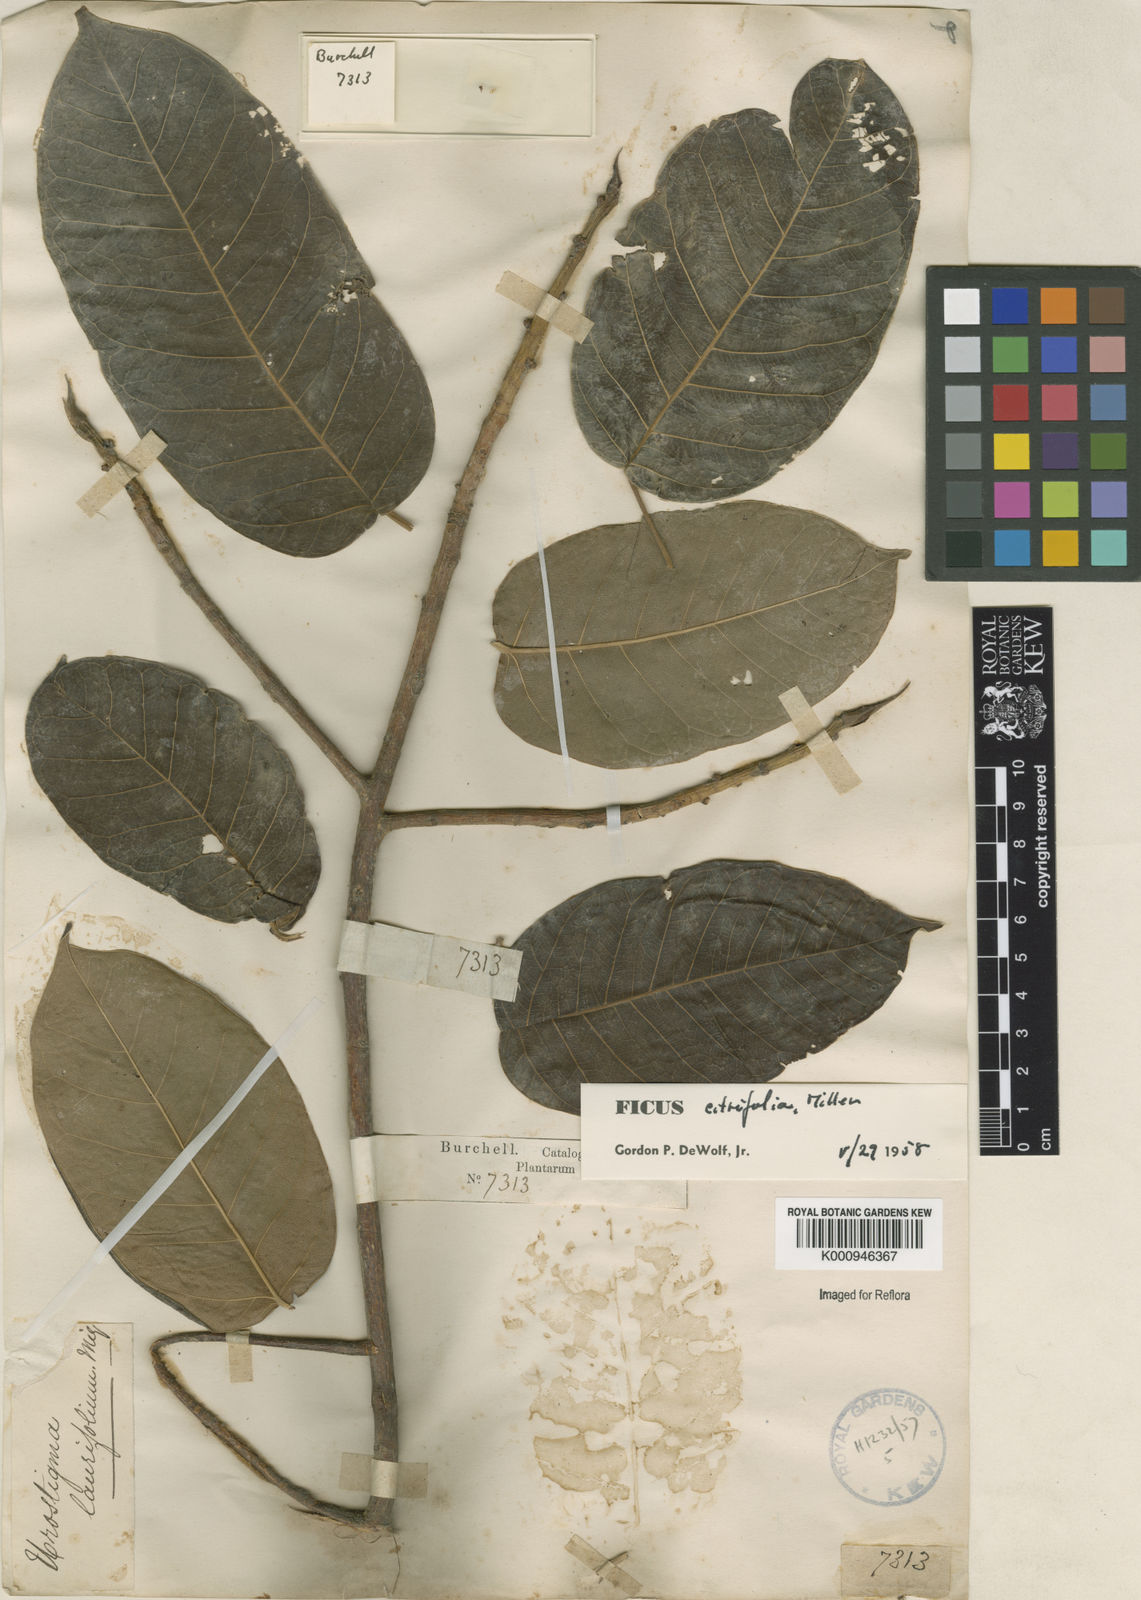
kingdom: Plantae
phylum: Tracheophyta
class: Magnoliopsida
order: Rosales
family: Moraceae
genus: Ficus
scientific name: Ficus citrifolia
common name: Strangler fig
